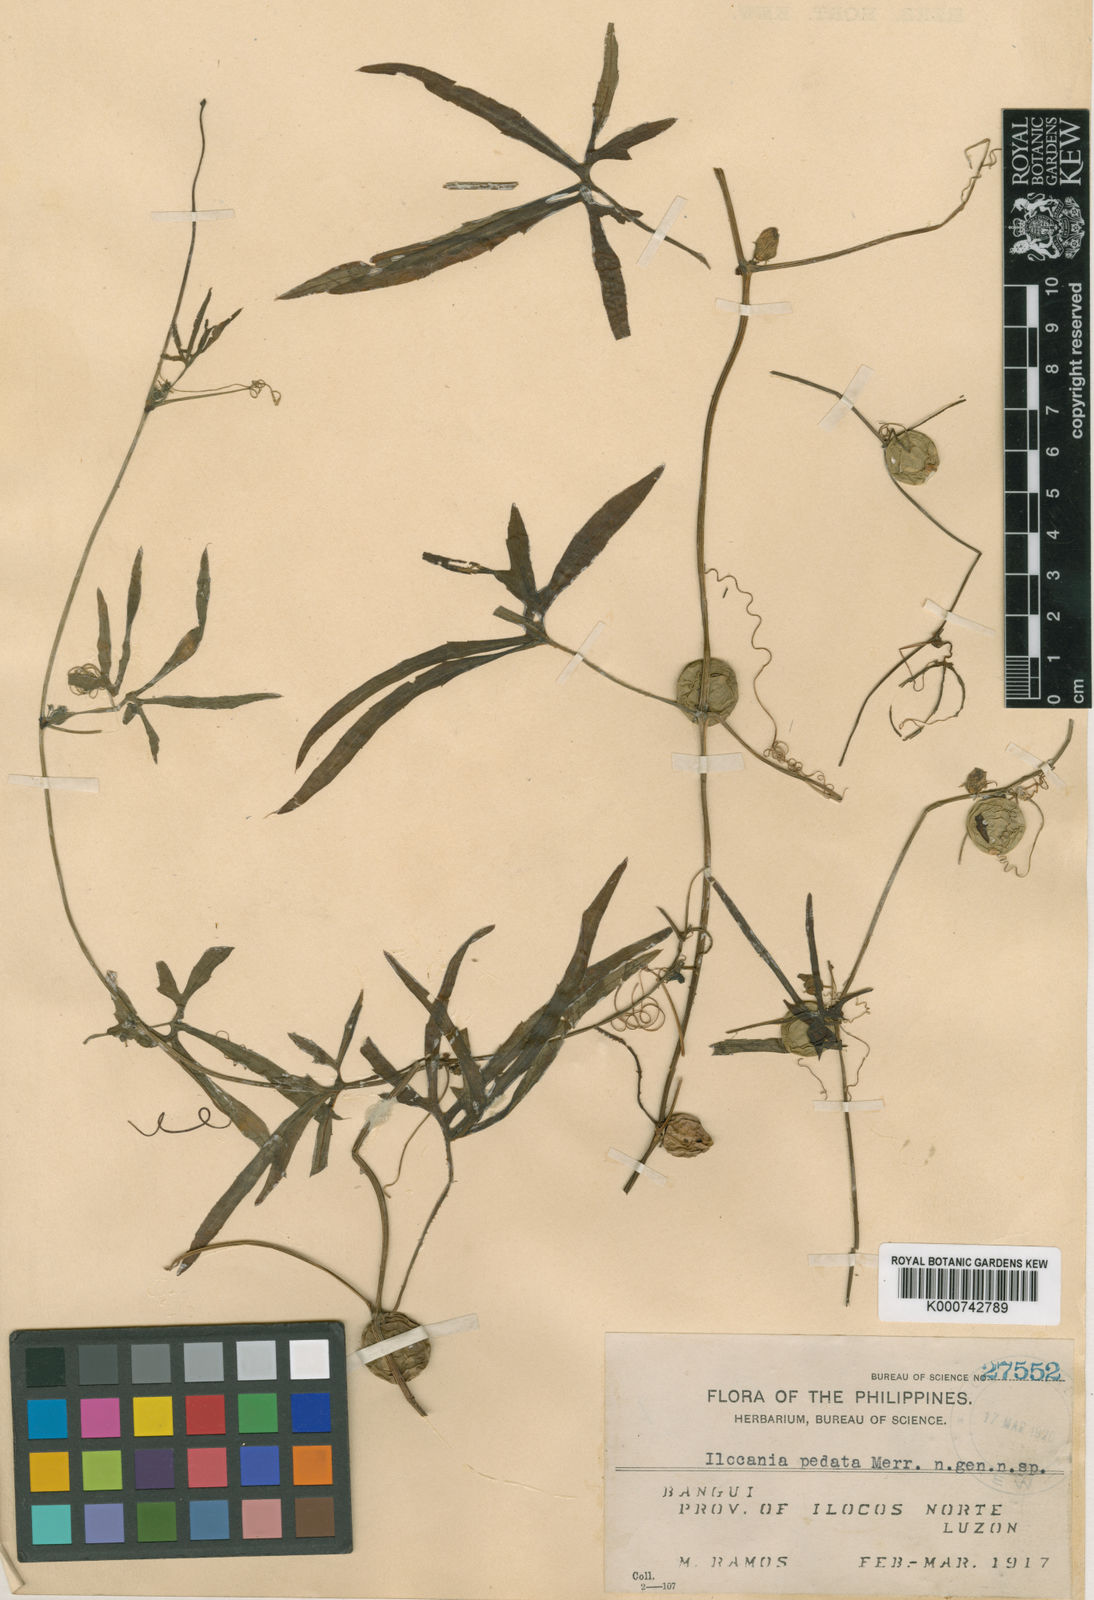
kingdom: Plantae
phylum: Tracheophyta
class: Magnoliopsida
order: Cucurbitales
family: Cucurbitaceae
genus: Diplocyclos
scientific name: Diplocyclos palmatus
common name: Striped-cucumber
